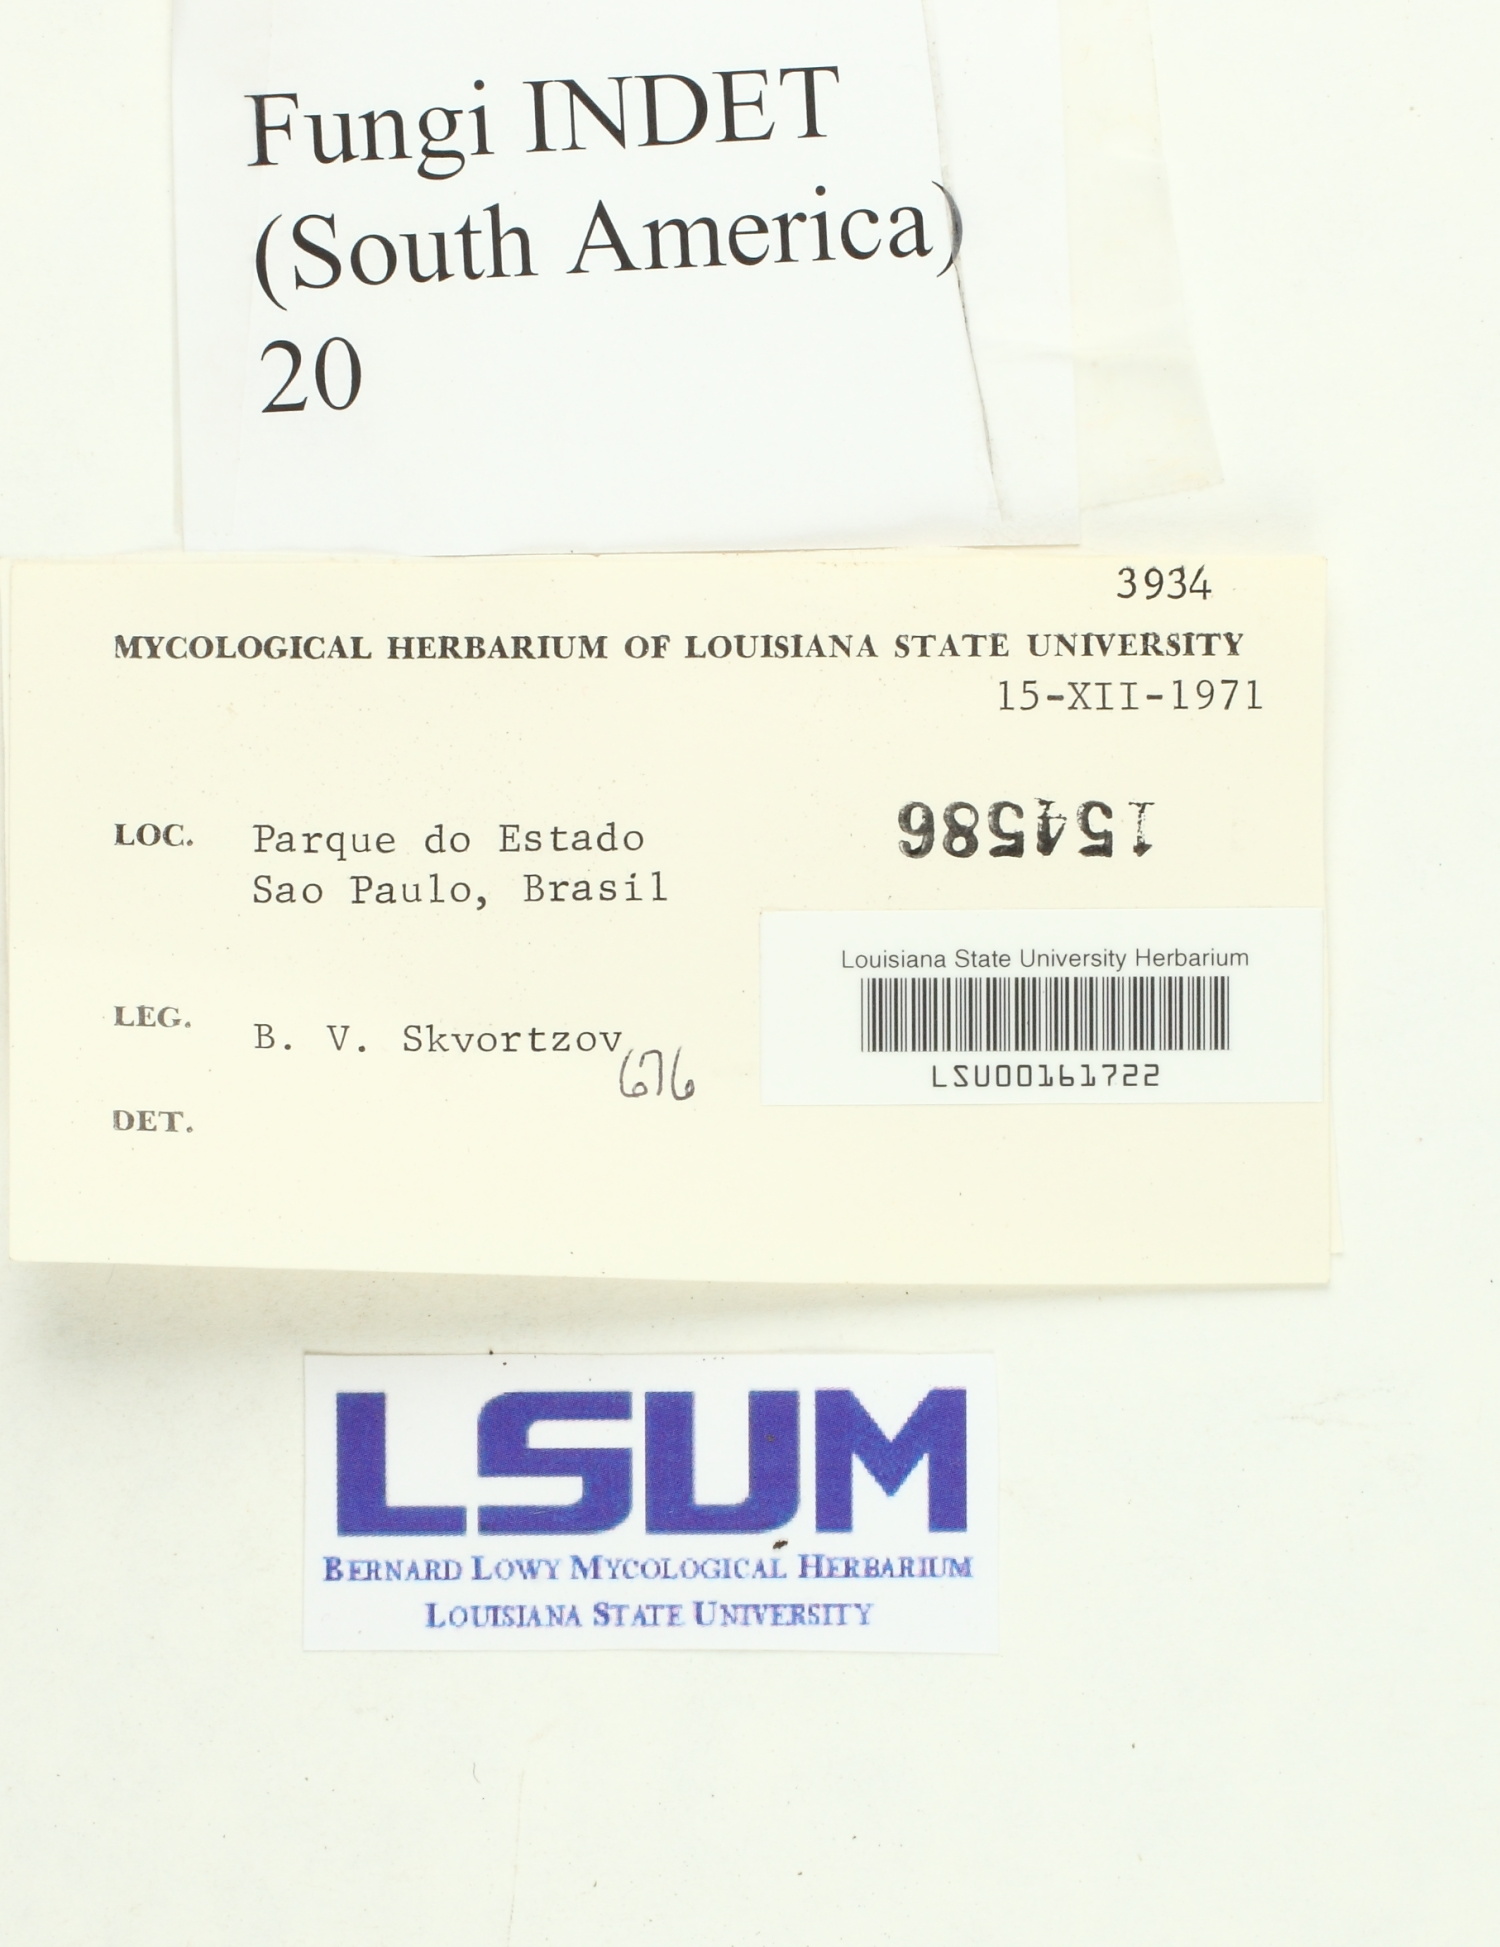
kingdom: Fungi
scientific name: Fungi
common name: Fungi
